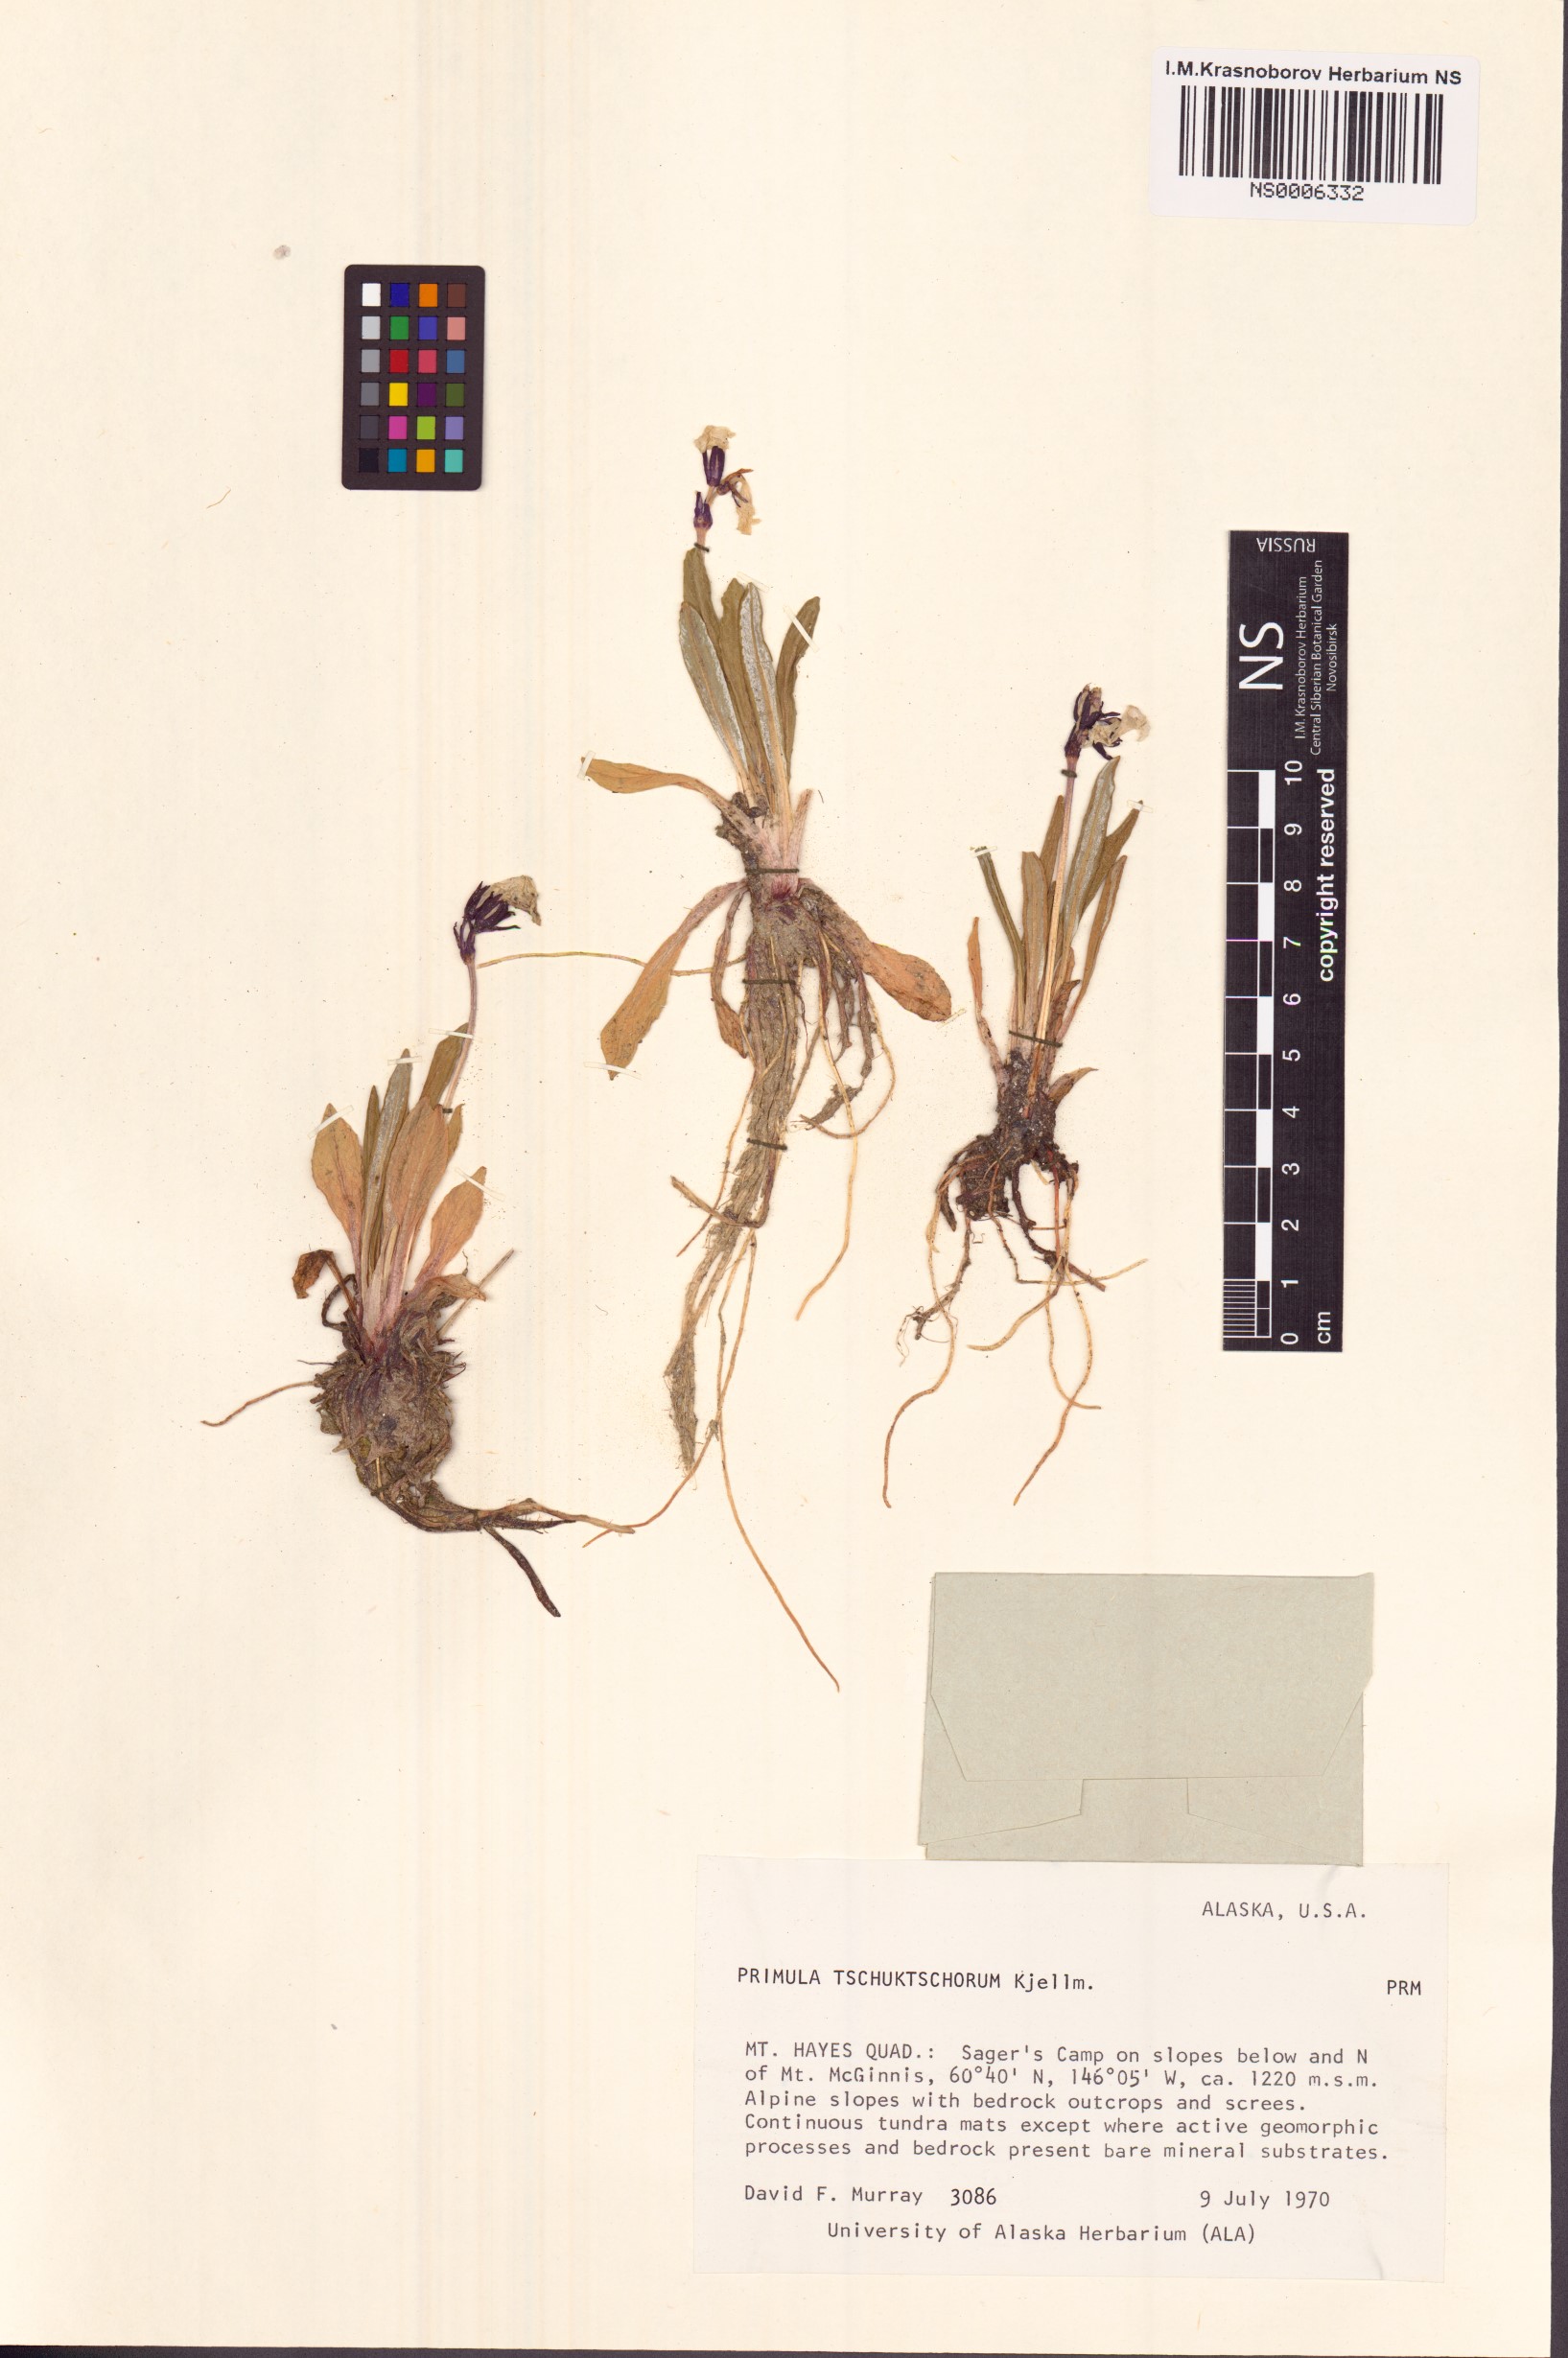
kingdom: Plantae
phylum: Tracheophyta
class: Magnoliopsida
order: Ericales
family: Primulaceae
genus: Primula
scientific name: Primula tschuktschorum
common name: Chukchi primrose
